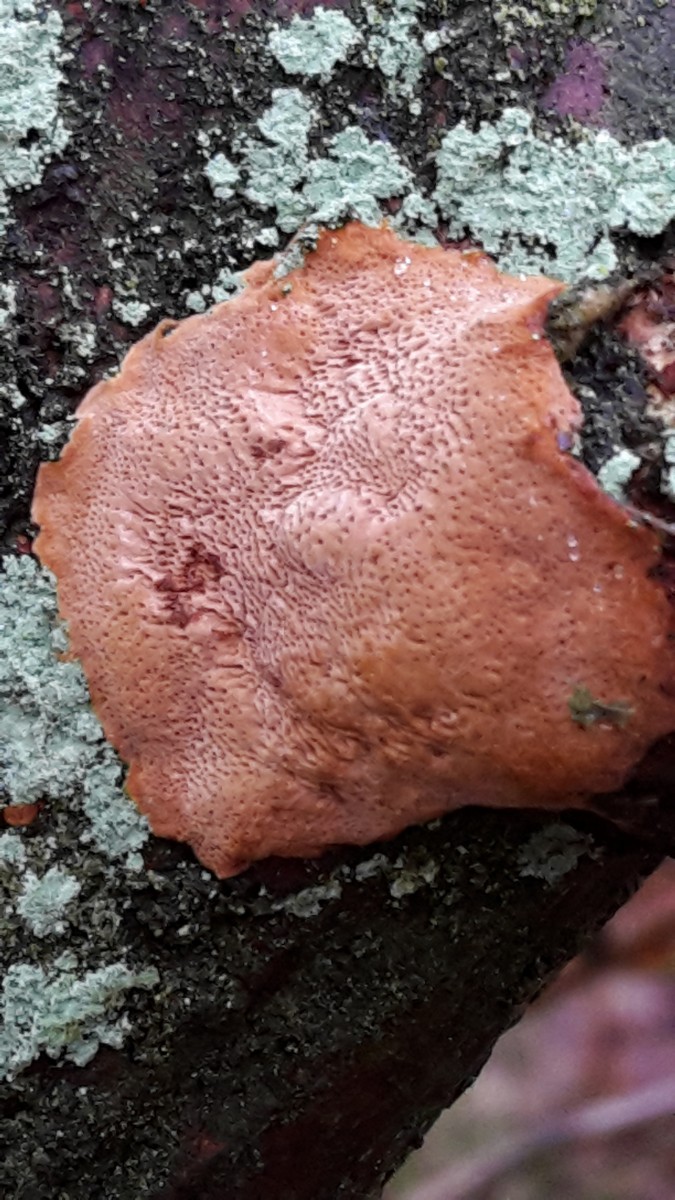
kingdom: Fungi
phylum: Basidiomycota
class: Agaricomycetes
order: Hymenochaetales
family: Hymenochaetaceae
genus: Fuscoporia
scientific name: Fuscoporia ferrea
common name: skorpe-ildporesvamp
